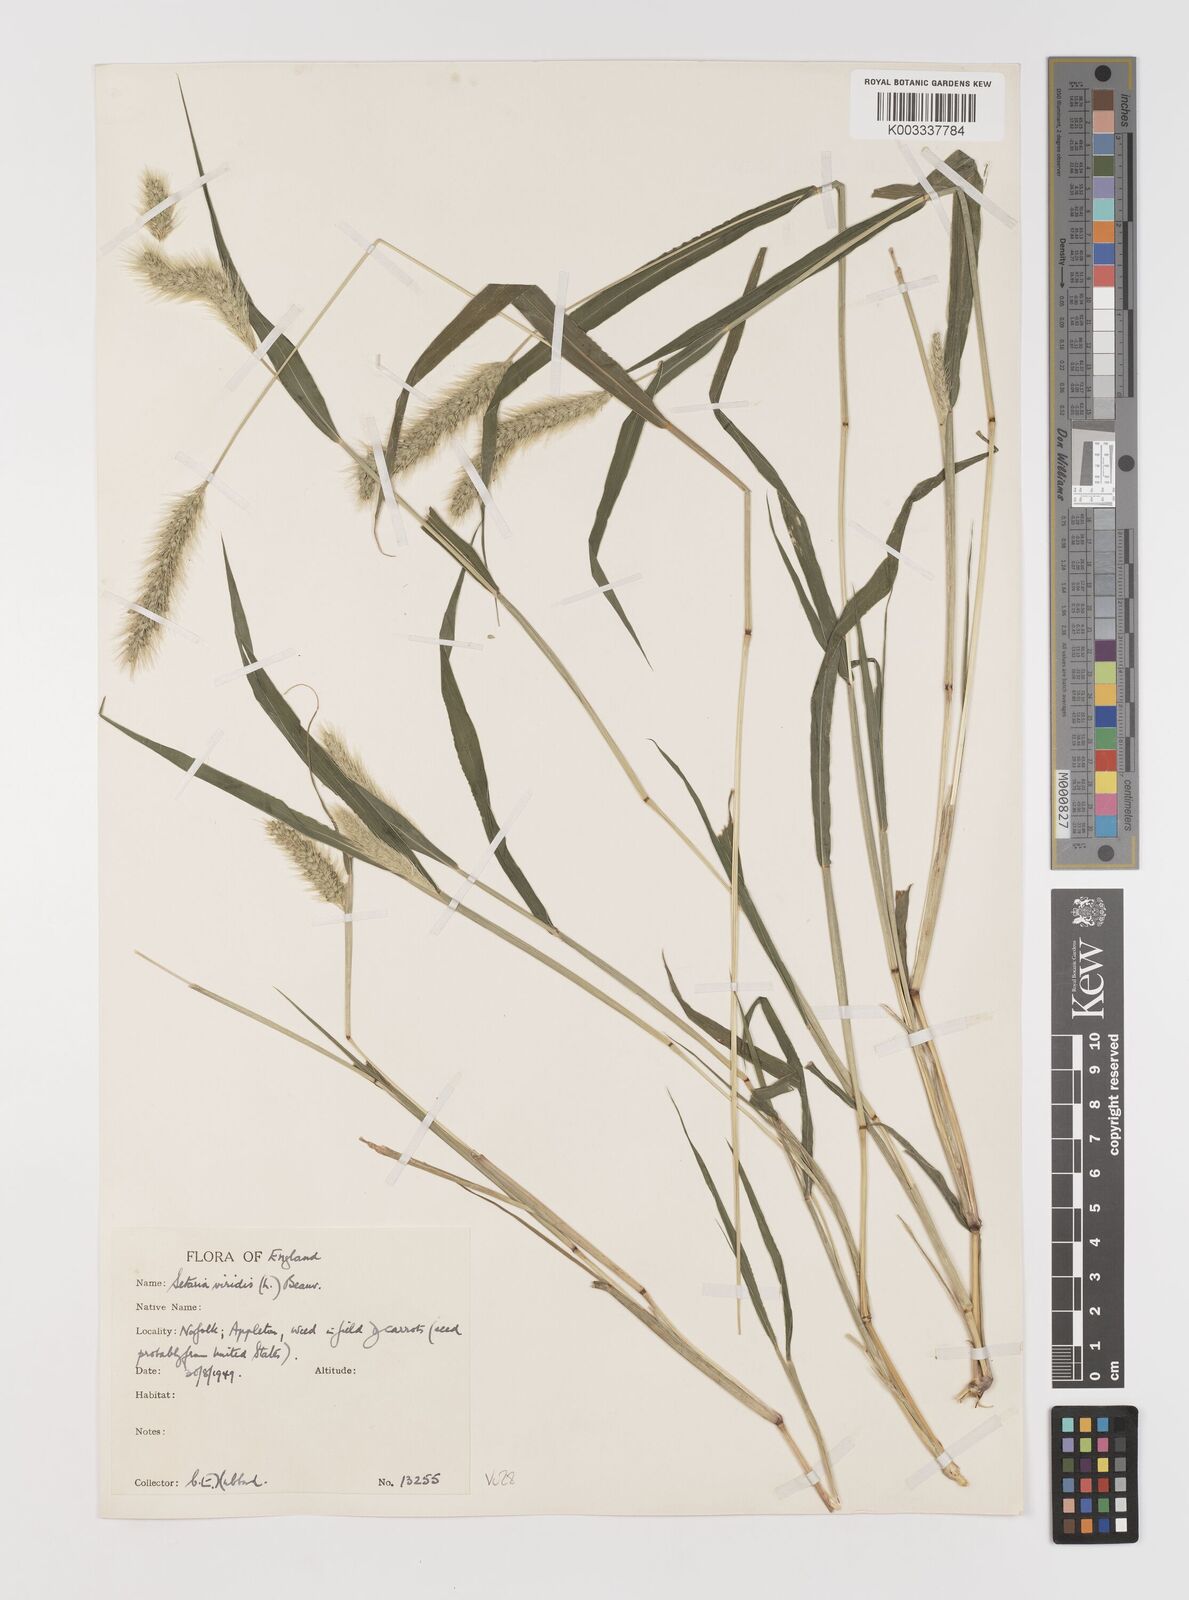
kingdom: Plantae
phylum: Tracheophyta
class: Liliopsida
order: Poales
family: Poaceae
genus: Setaria
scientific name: Setaria viridis
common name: Green bristlegrass
